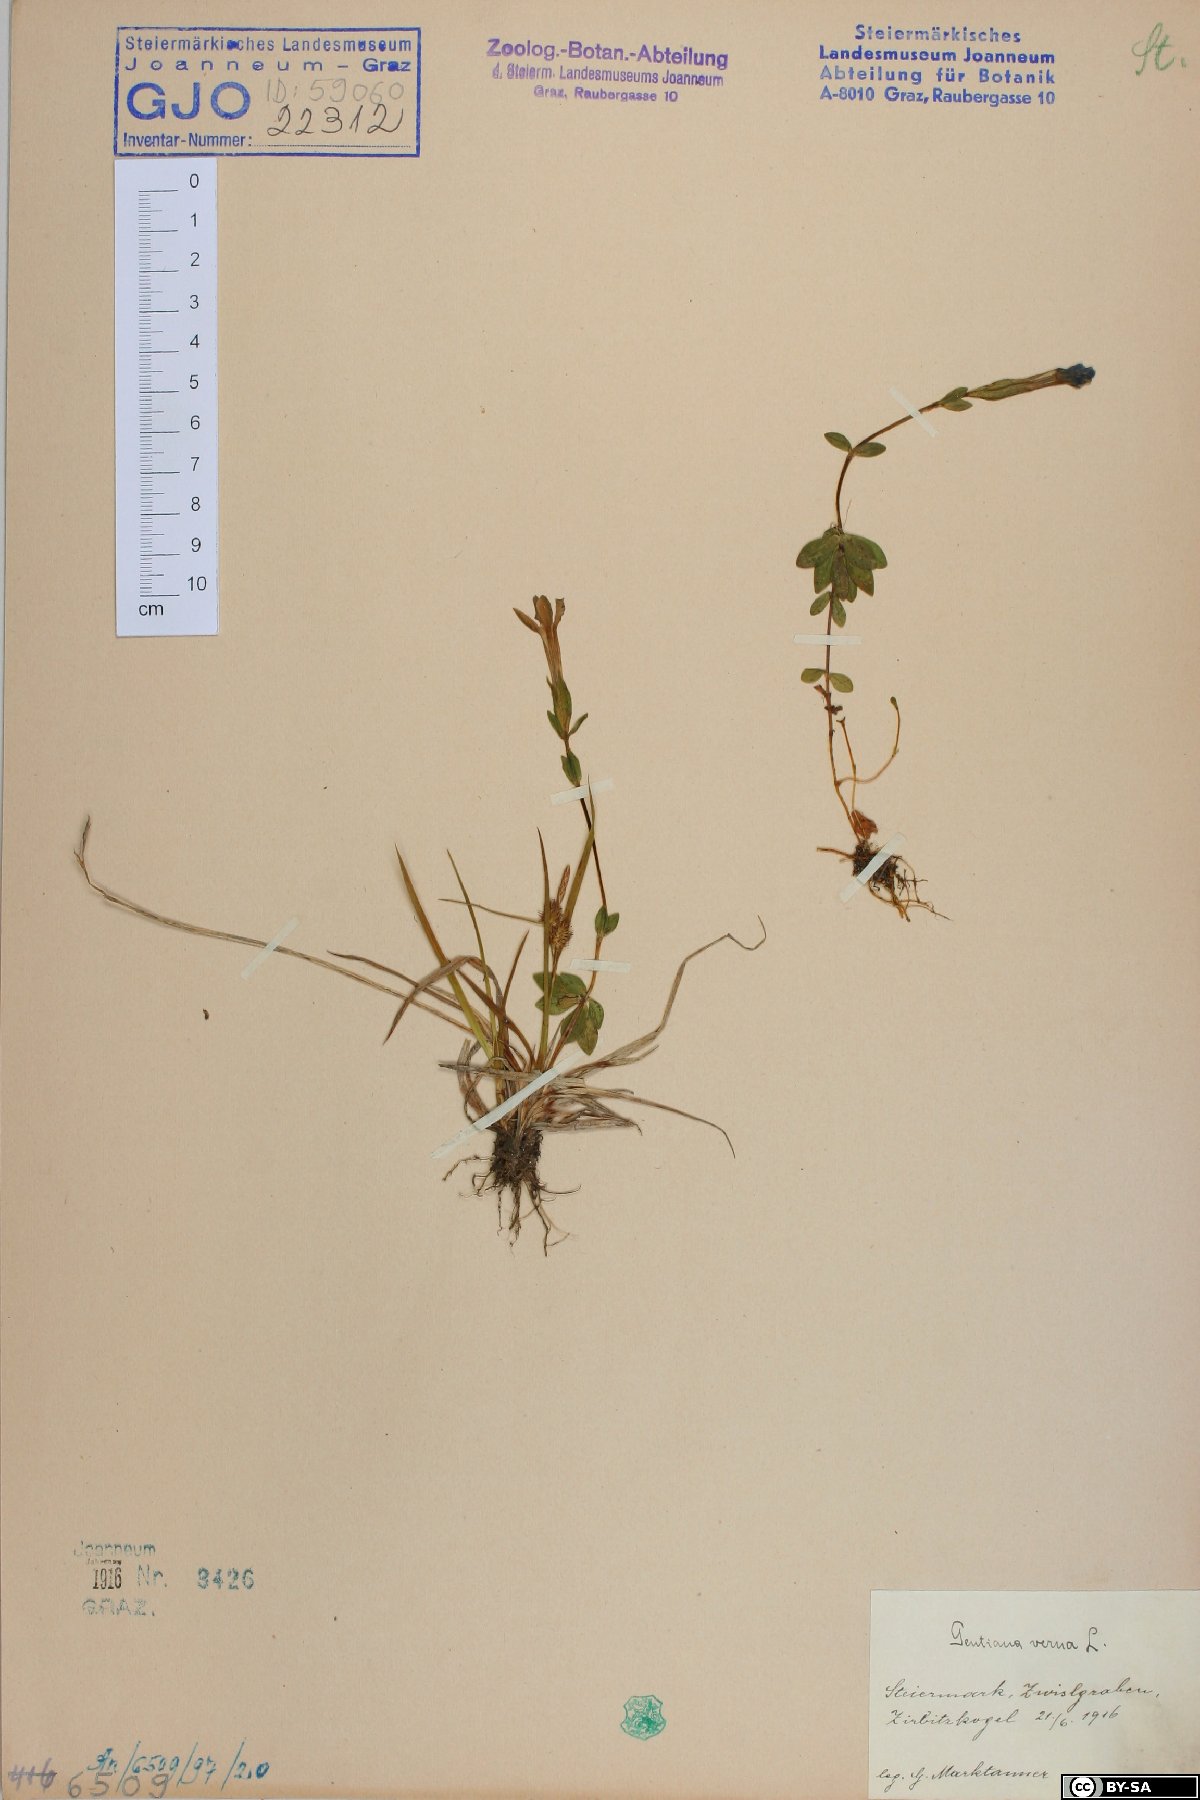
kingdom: Plantae
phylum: Tracheophyta
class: Magnoliopsida
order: Gentianales
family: Gentianaceae
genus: Gentiana
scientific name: Gentiana verna
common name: Spring gentian
